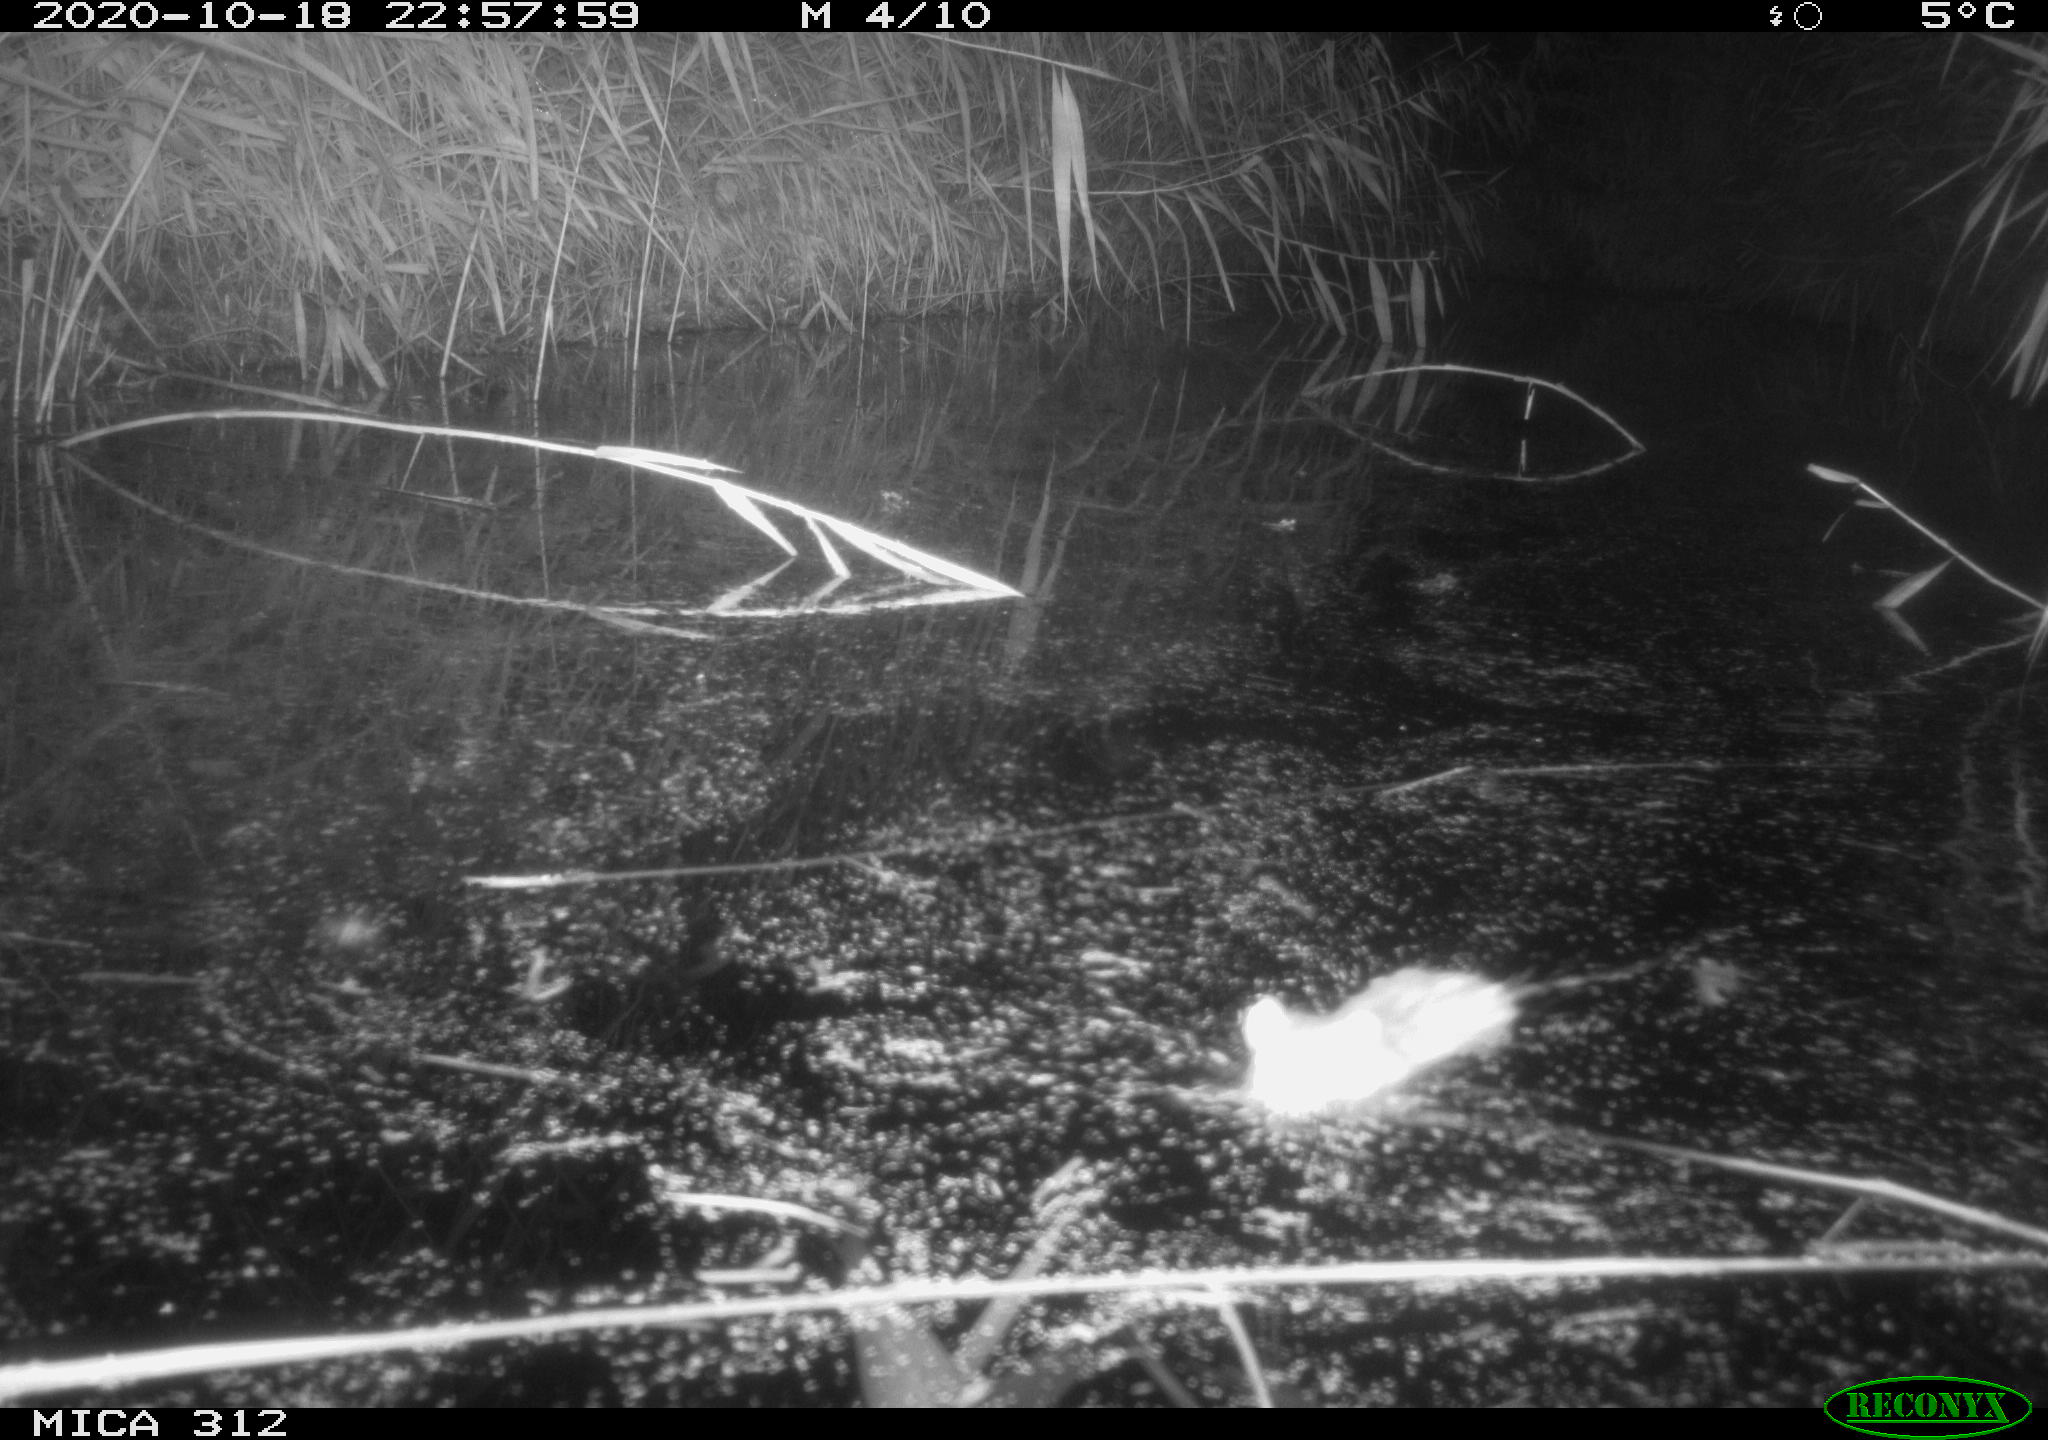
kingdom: Animalia
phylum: Chordata
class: Mammalia
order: Rodentia
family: Muridae
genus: Rattus
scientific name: Rattus norvegicus
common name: Brown rat
